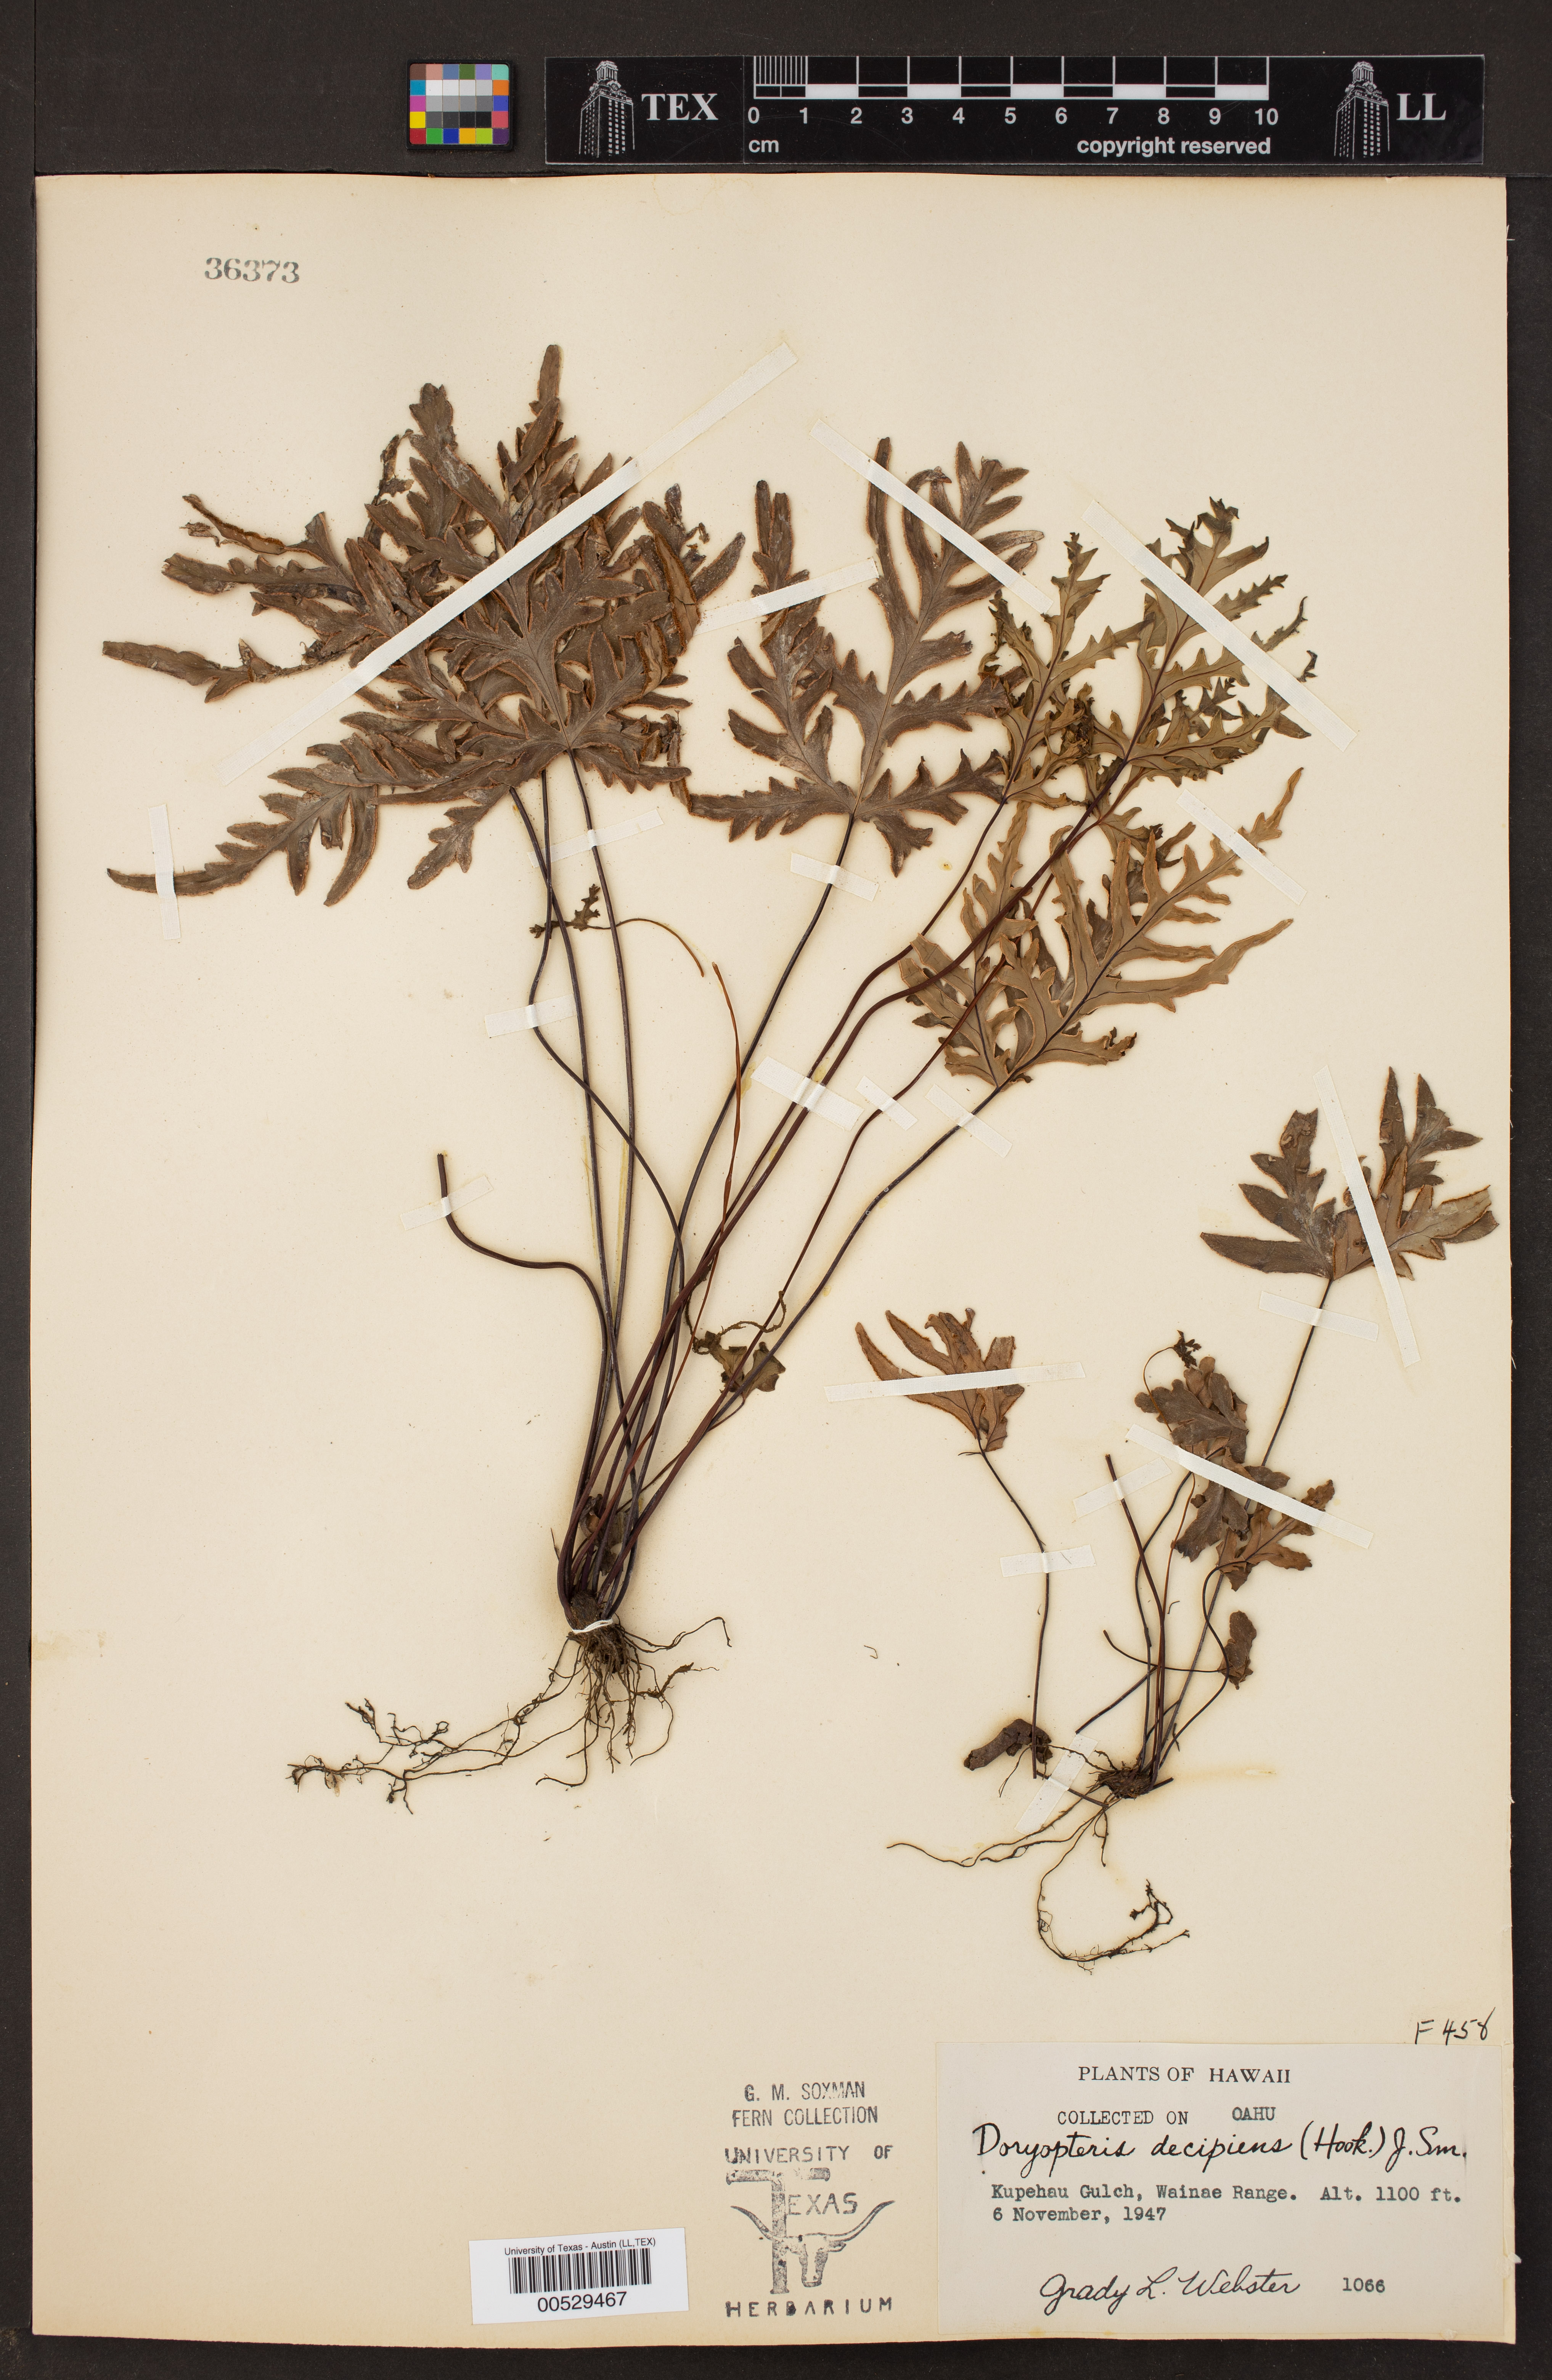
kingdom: Plantae
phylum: Tracheophyta
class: Polypodiopsida
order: Polypodiales
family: Pteridaceae
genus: Doryopteris
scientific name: Doryopteris decipiens
